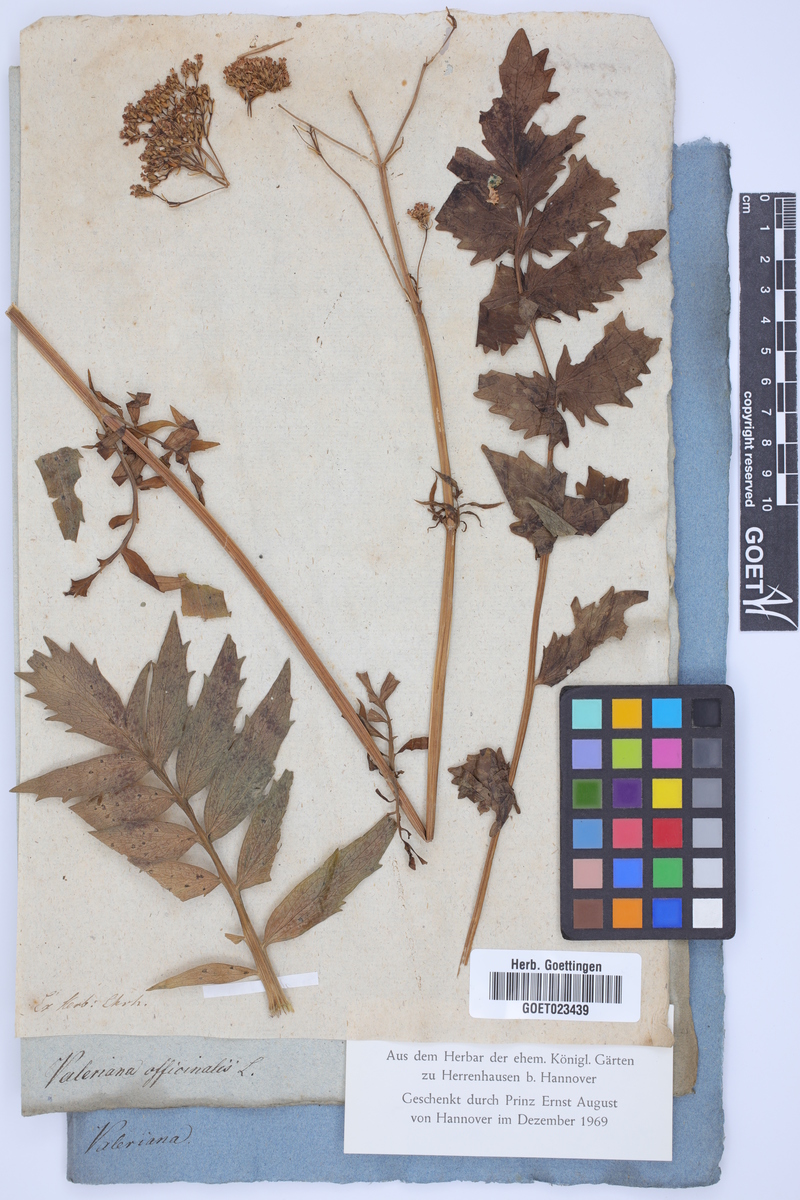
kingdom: Plantae
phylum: Tracheophyta
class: Magnoliopsida
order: Dipsacales
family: Caprifoliaceae
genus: Valeriana
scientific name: Valeriana officinalis
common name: Common valerian
